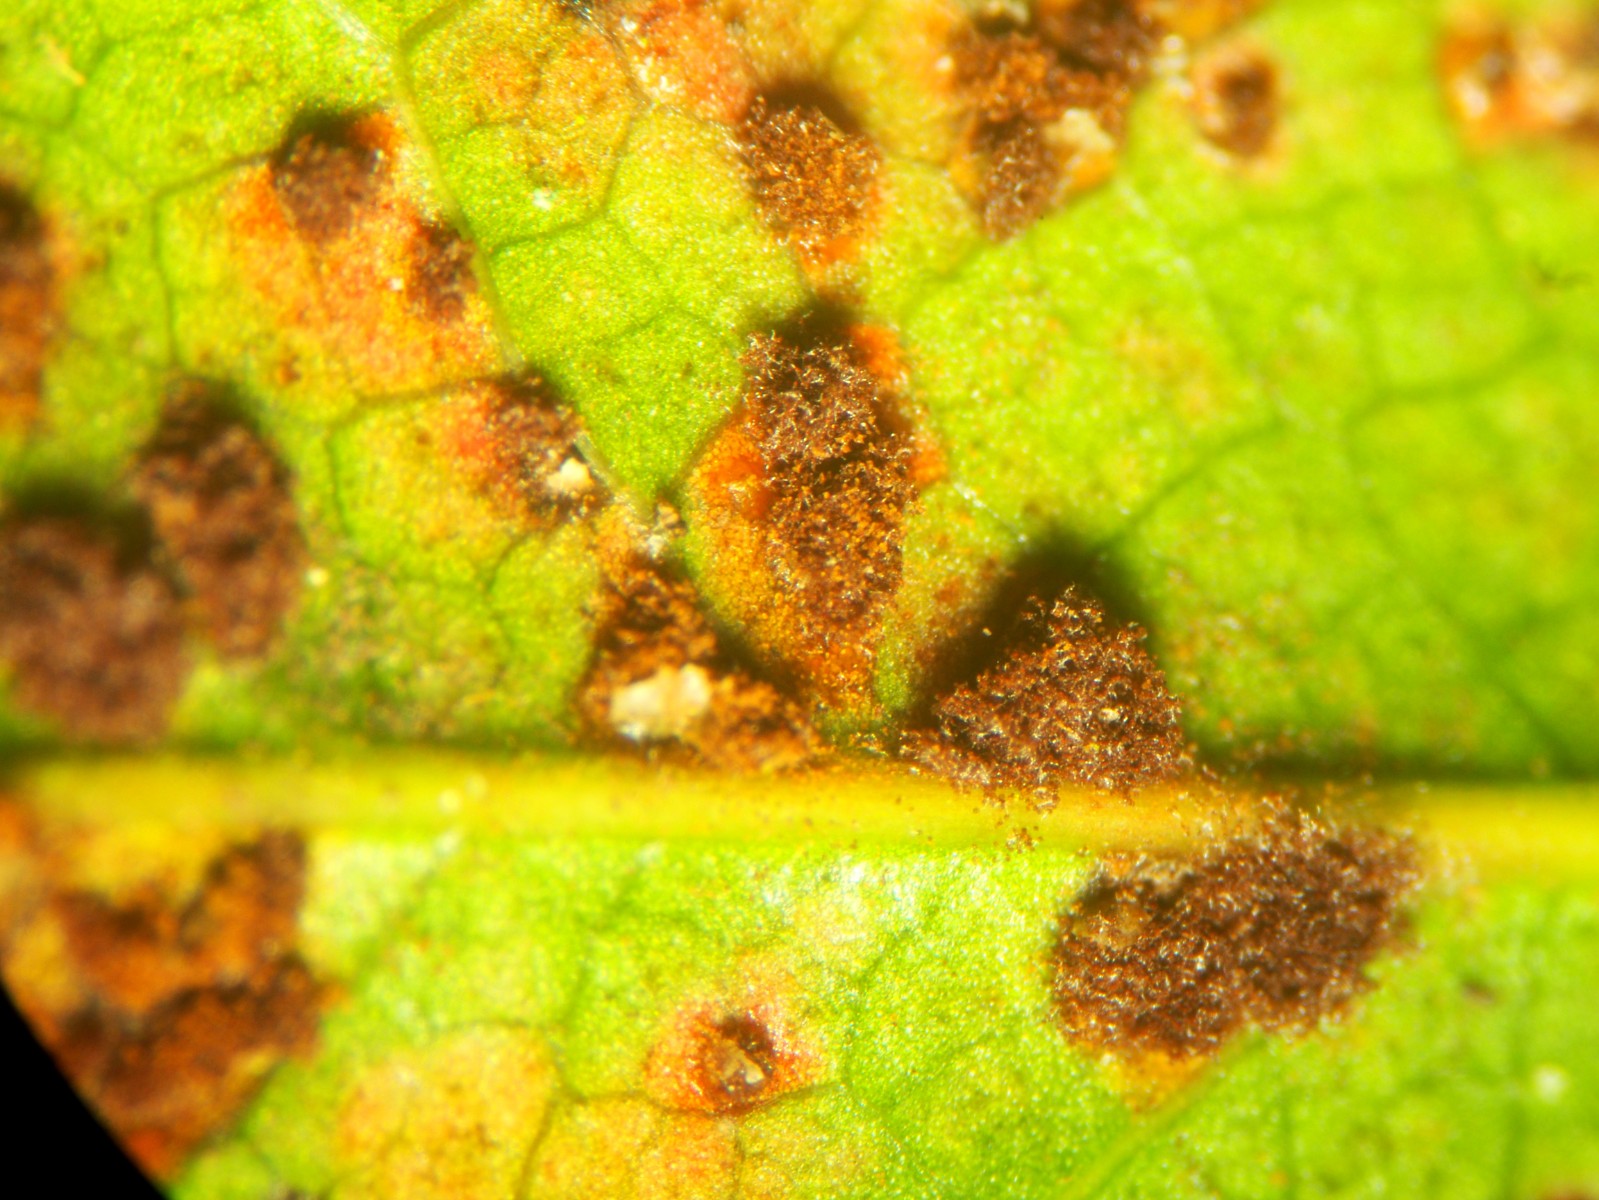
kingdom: Fungi
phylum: Basidiomycota
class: Pucciniomycetes
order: Pucciniales
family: Pucciniaceae
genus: Cumminsiella
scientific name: Cumminsiella mirabilissima
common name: mahonierust
